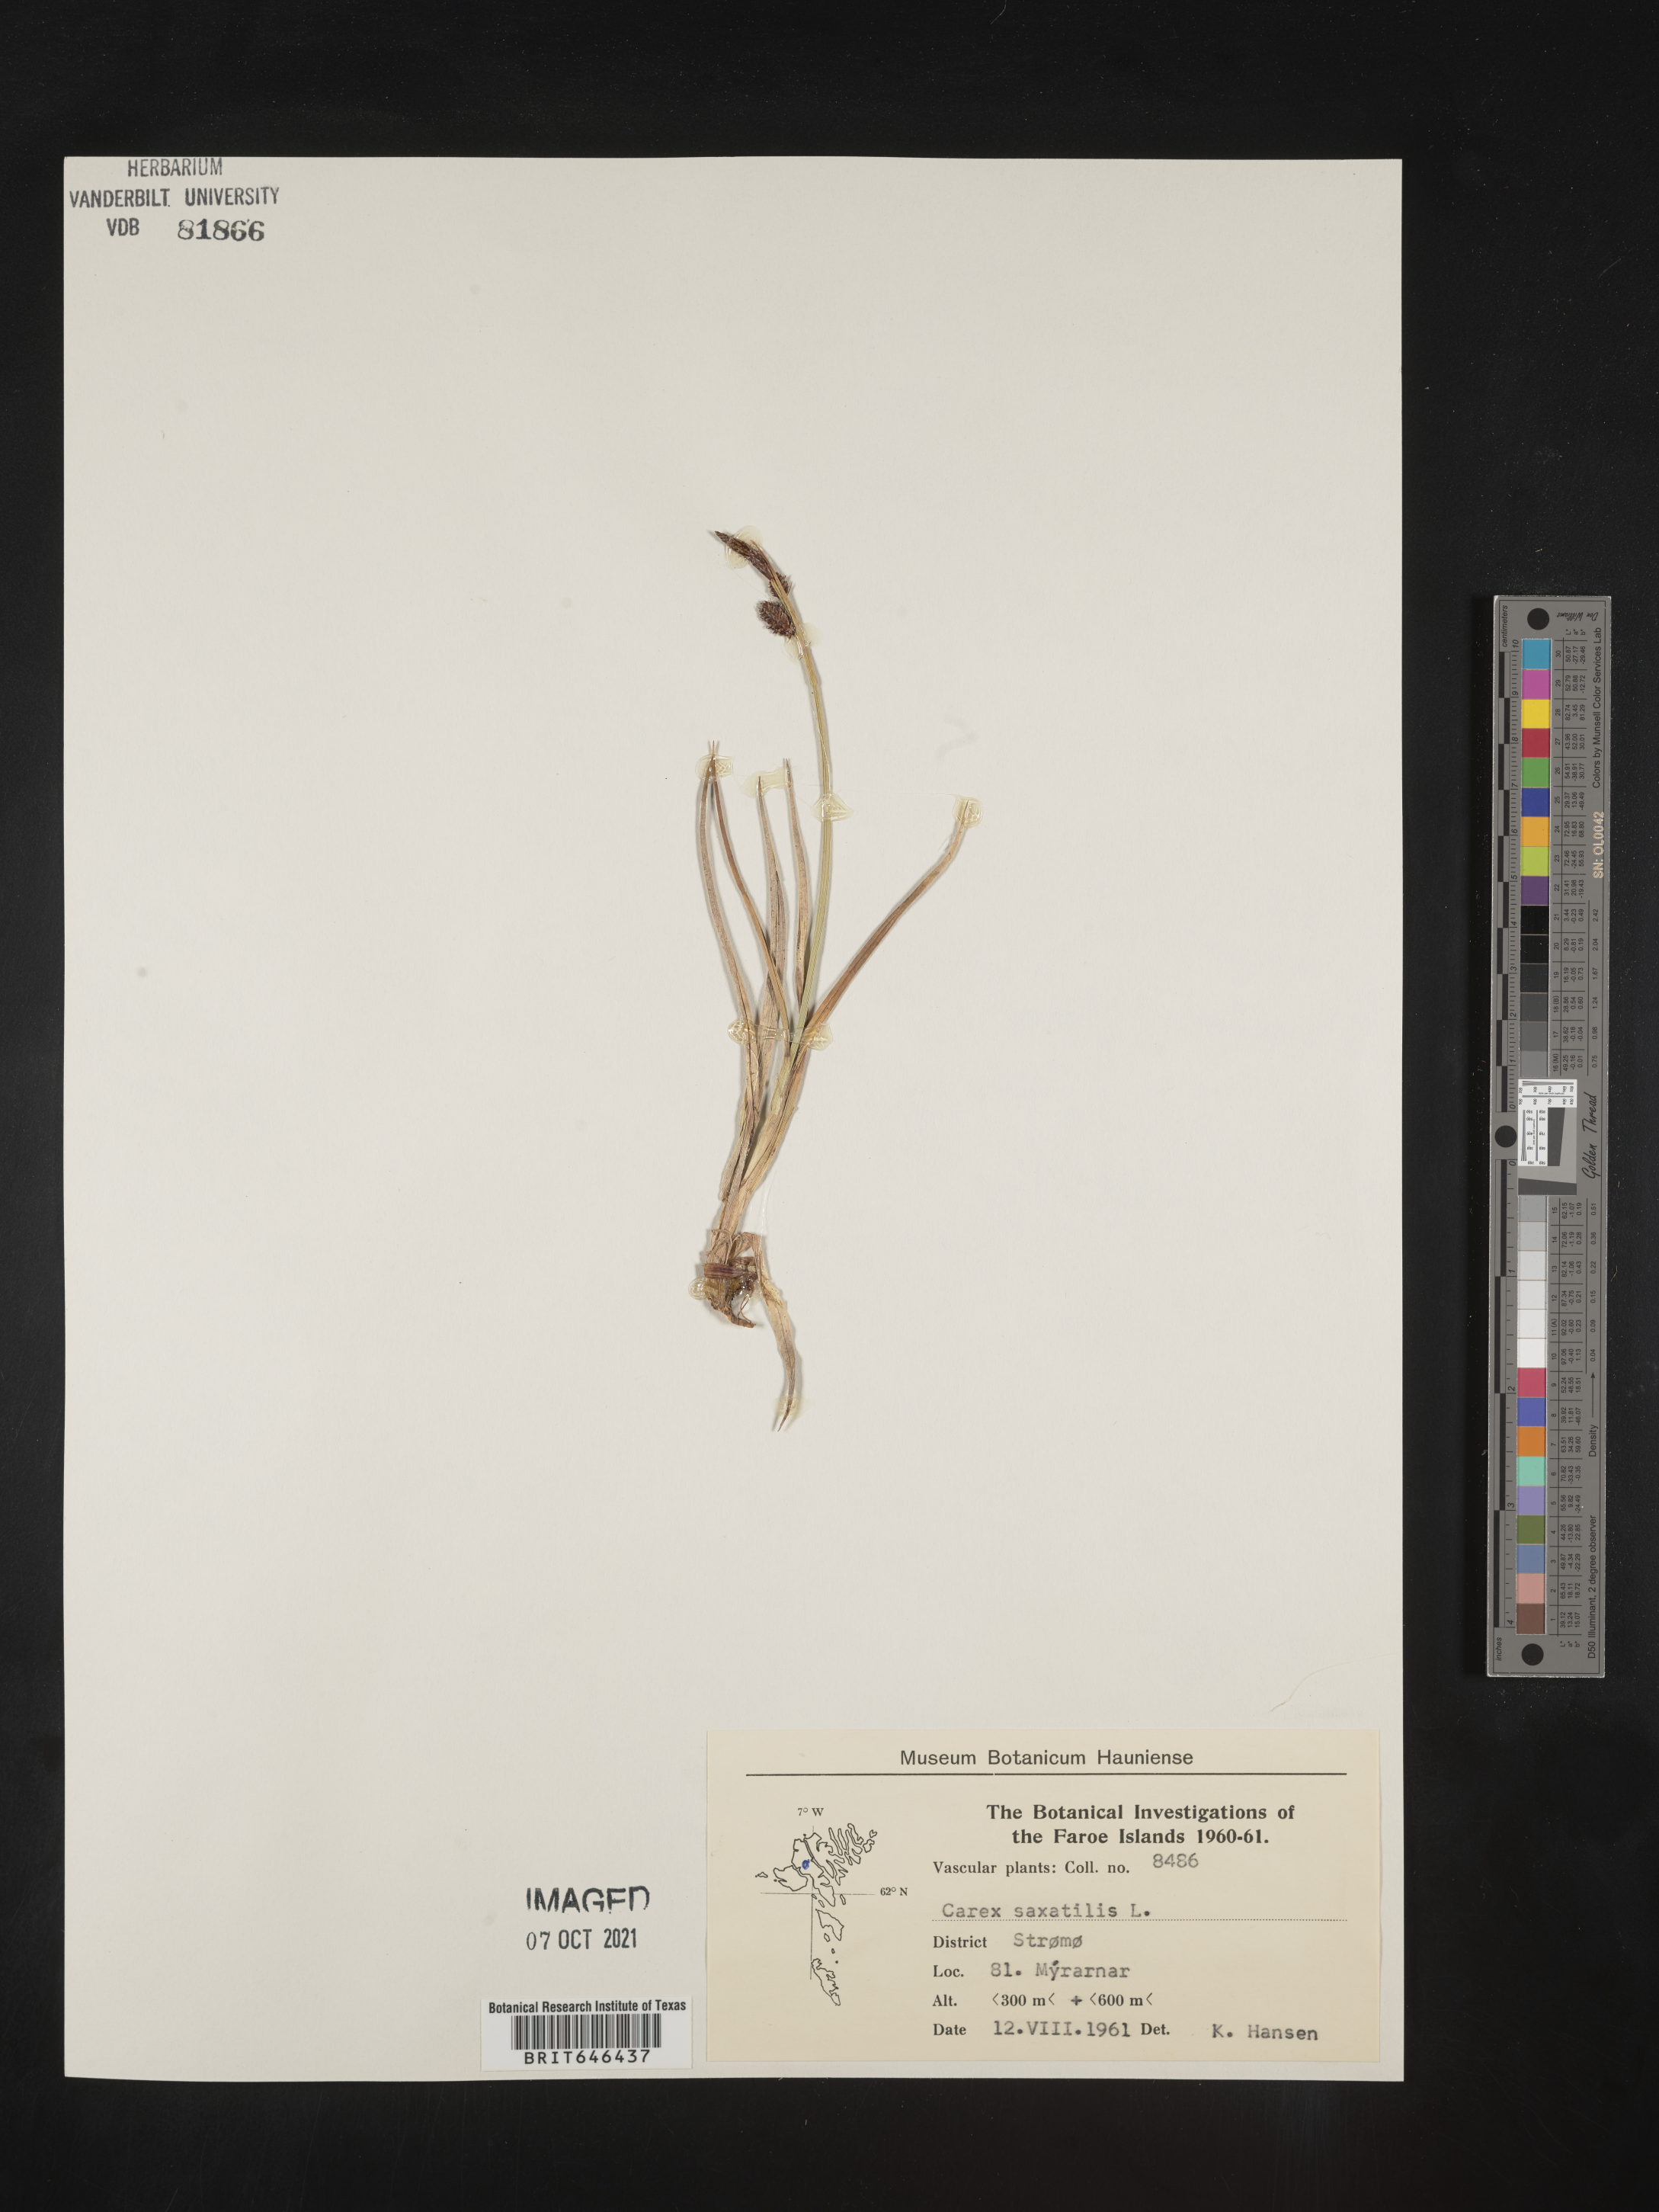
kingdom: Plantae
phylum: Tracheophyta
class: Liliopsida
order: Poales
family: Cyperaceae
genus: Carex
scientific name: Carex saxatilis
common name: Russet sedge
